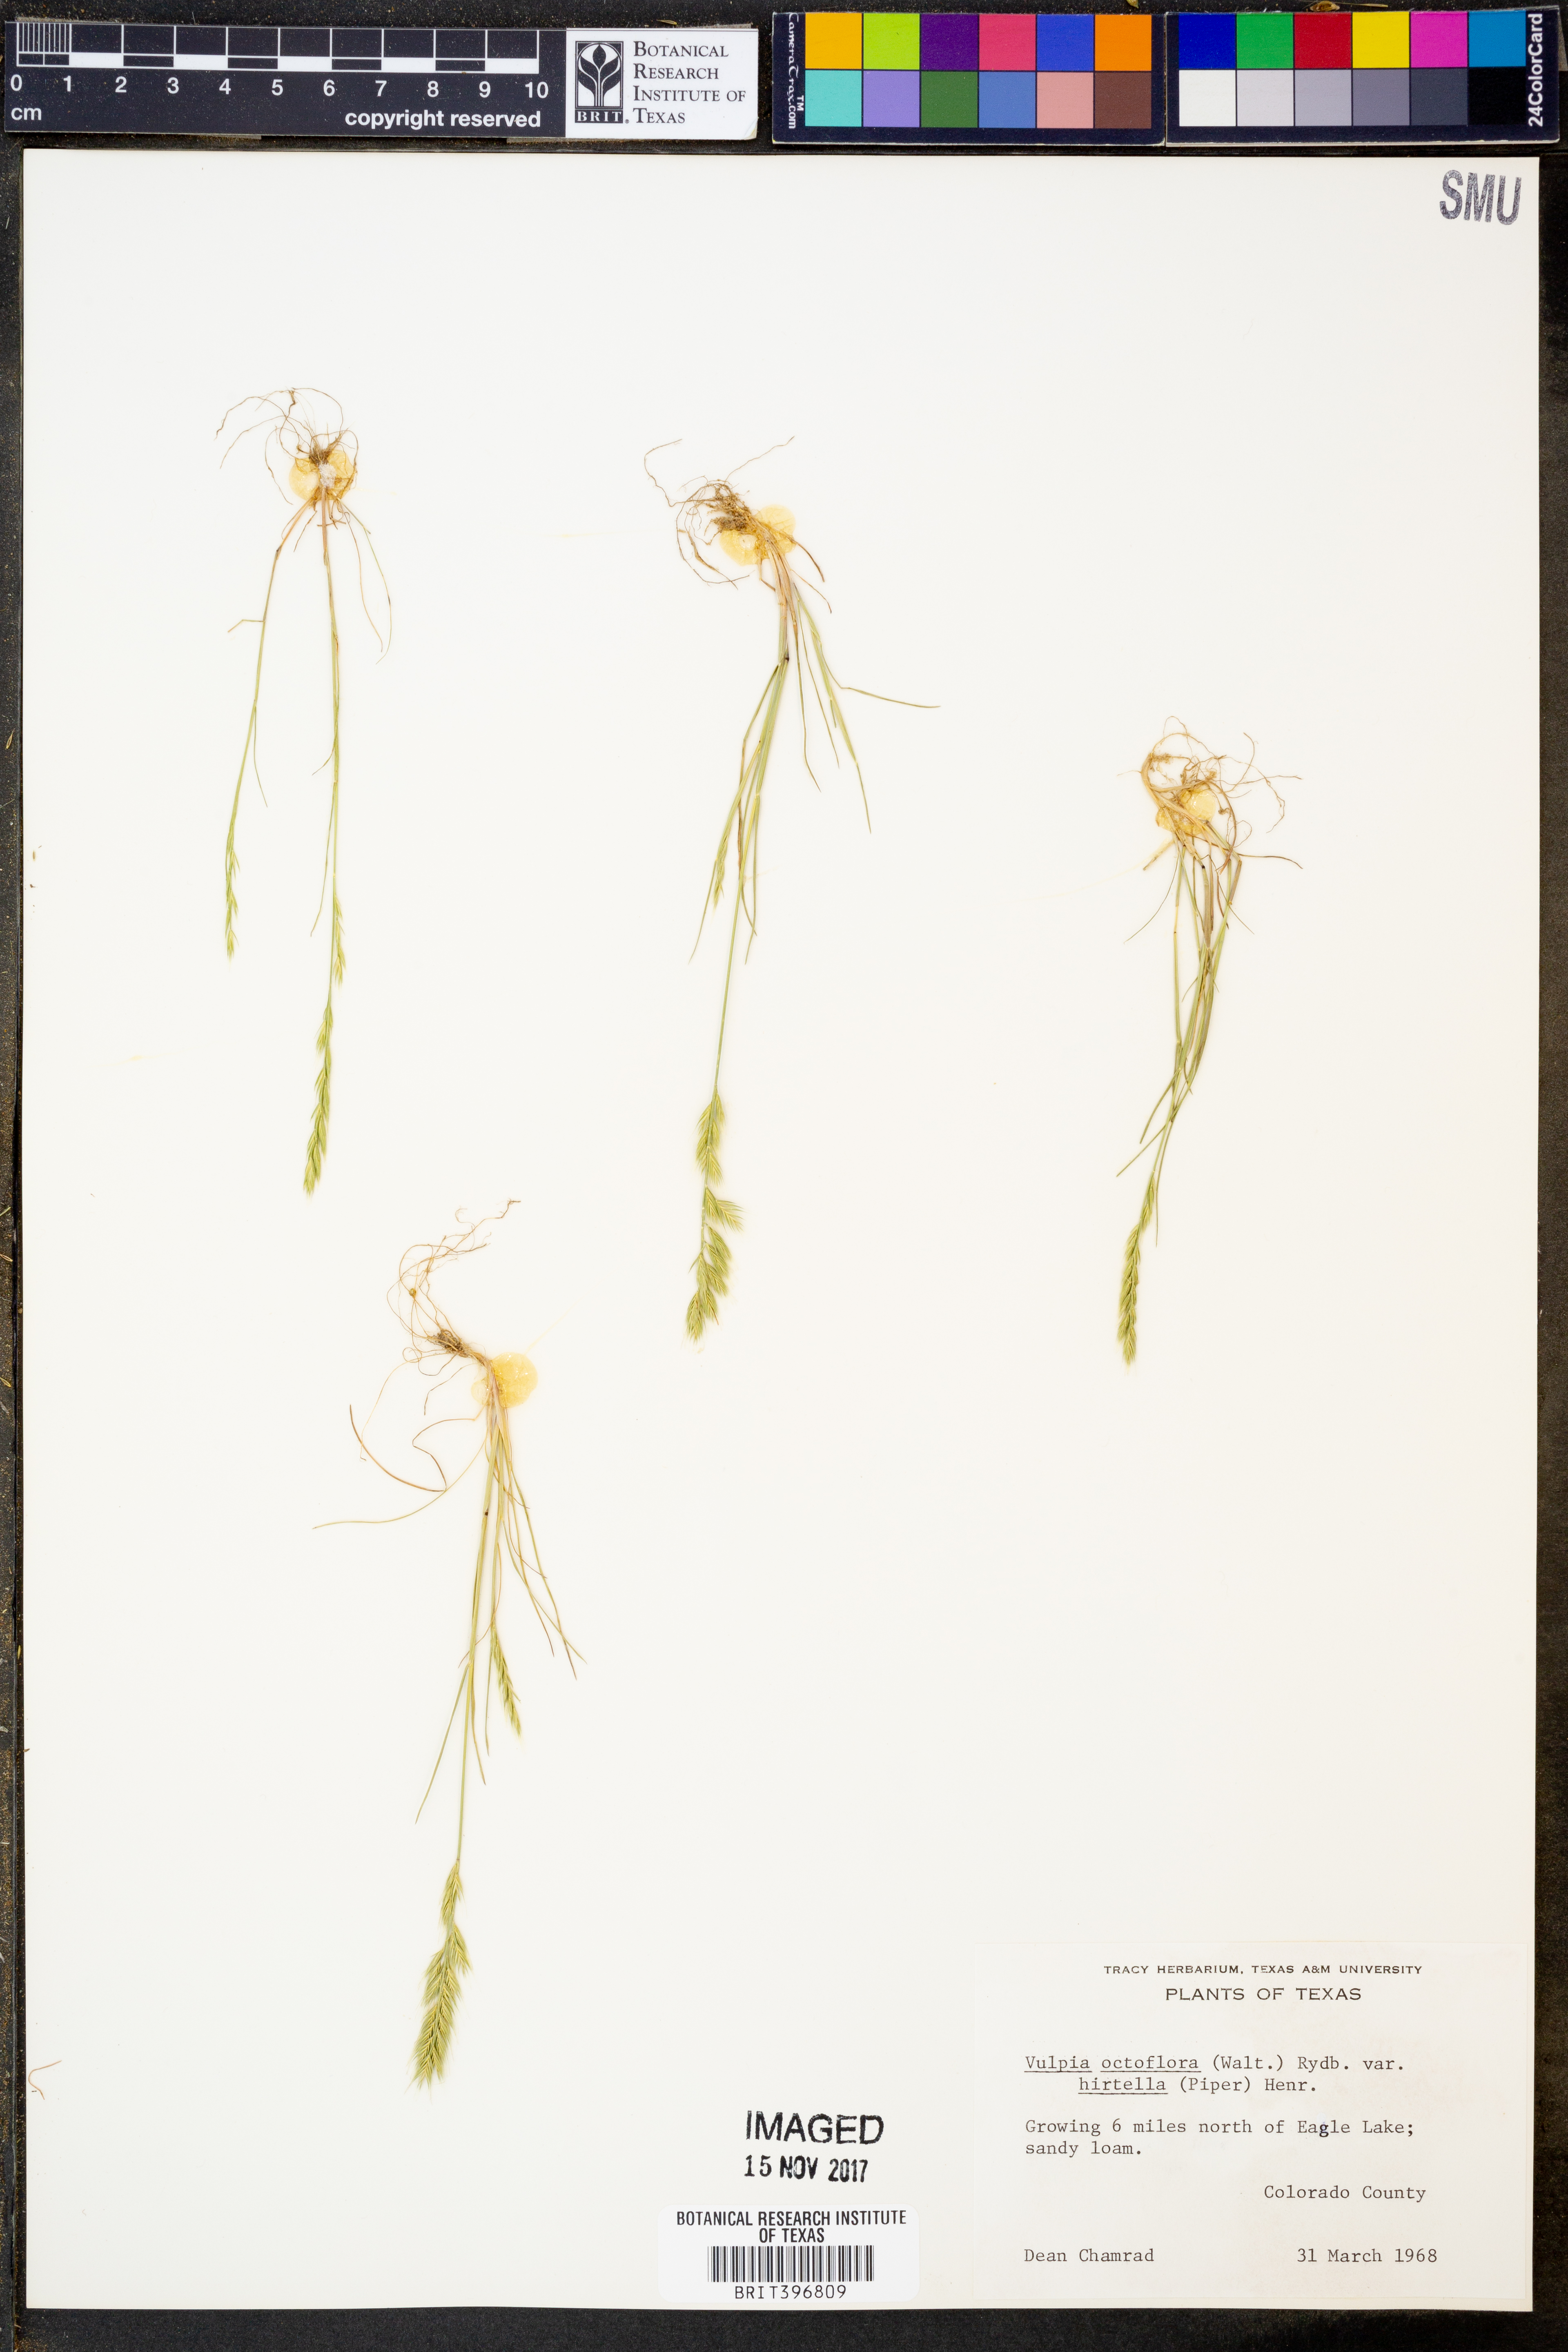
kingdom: Plantae
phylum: Tracheophyta
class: Liliopsida
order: Poales
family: Poaceae
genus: Festuca
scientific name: Festuca octoflora
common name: Sixweeks grass
